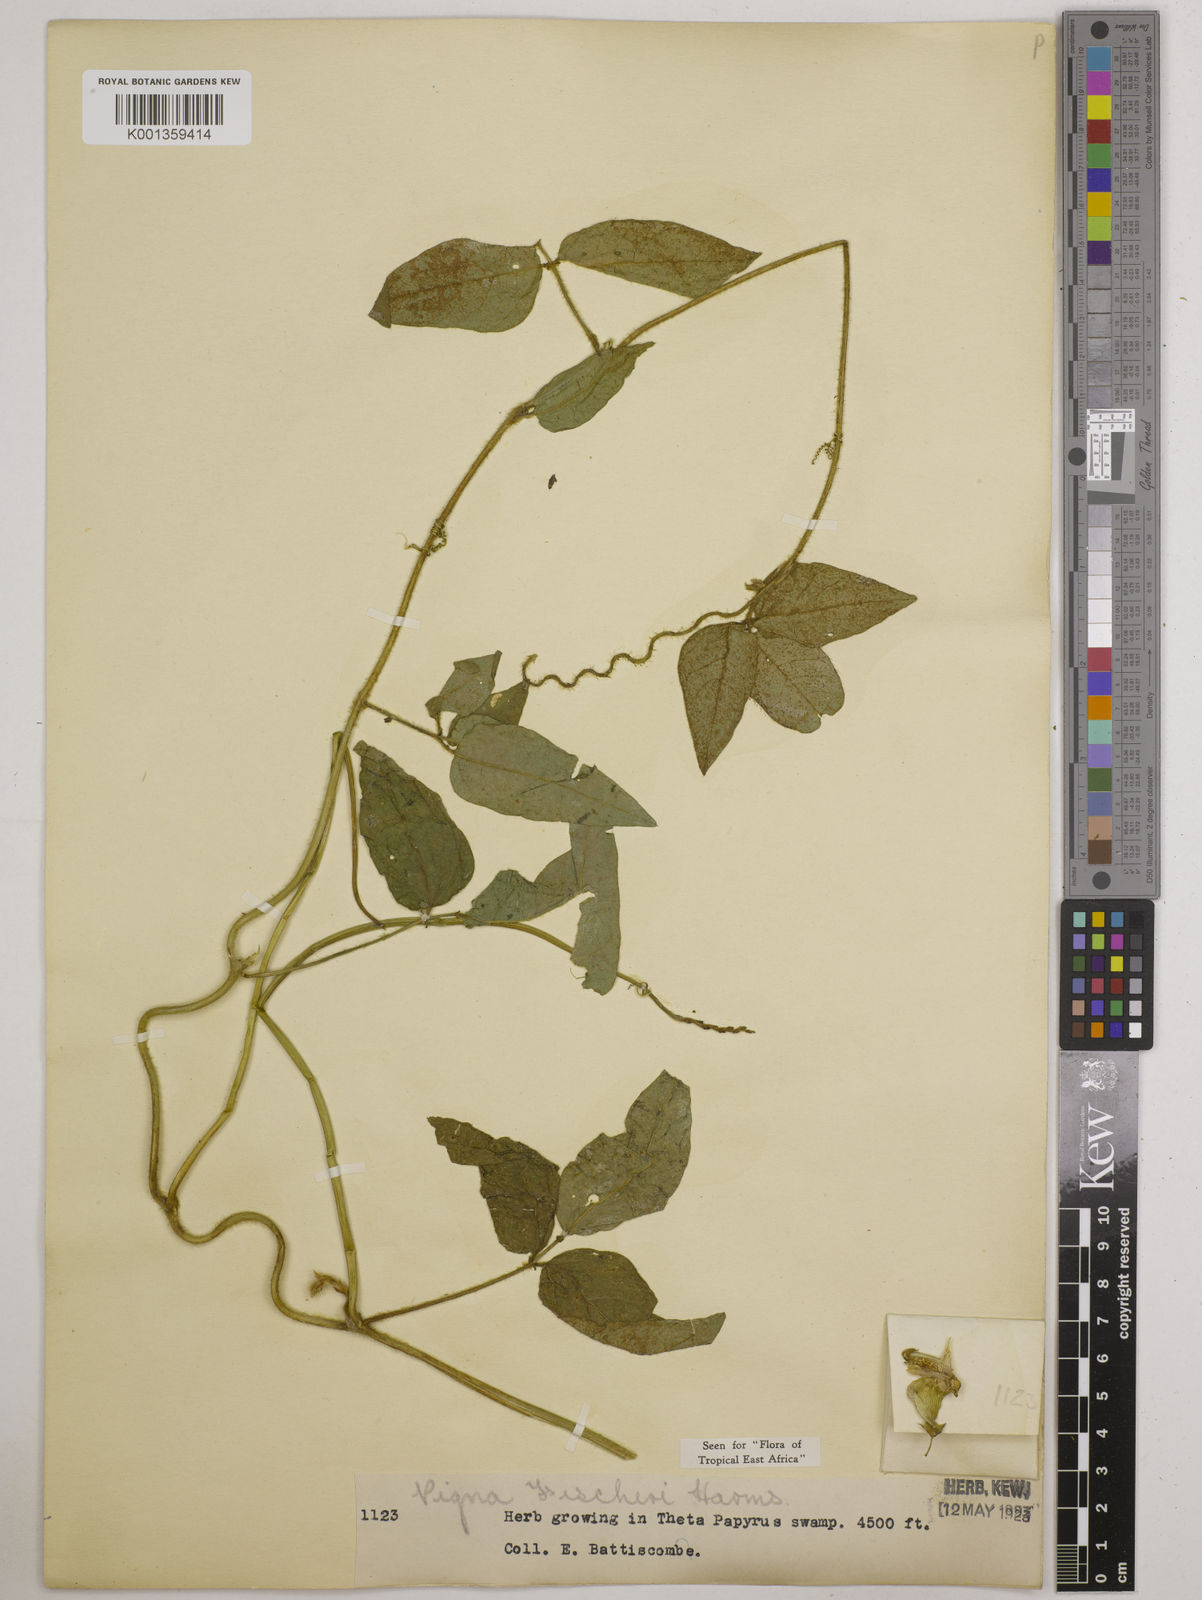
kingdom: Plantae
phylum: Tracheophyta
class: Magnoliopsida
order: Fabales
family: Fabaceae
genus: Vigna
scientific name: Vigna fischeri
